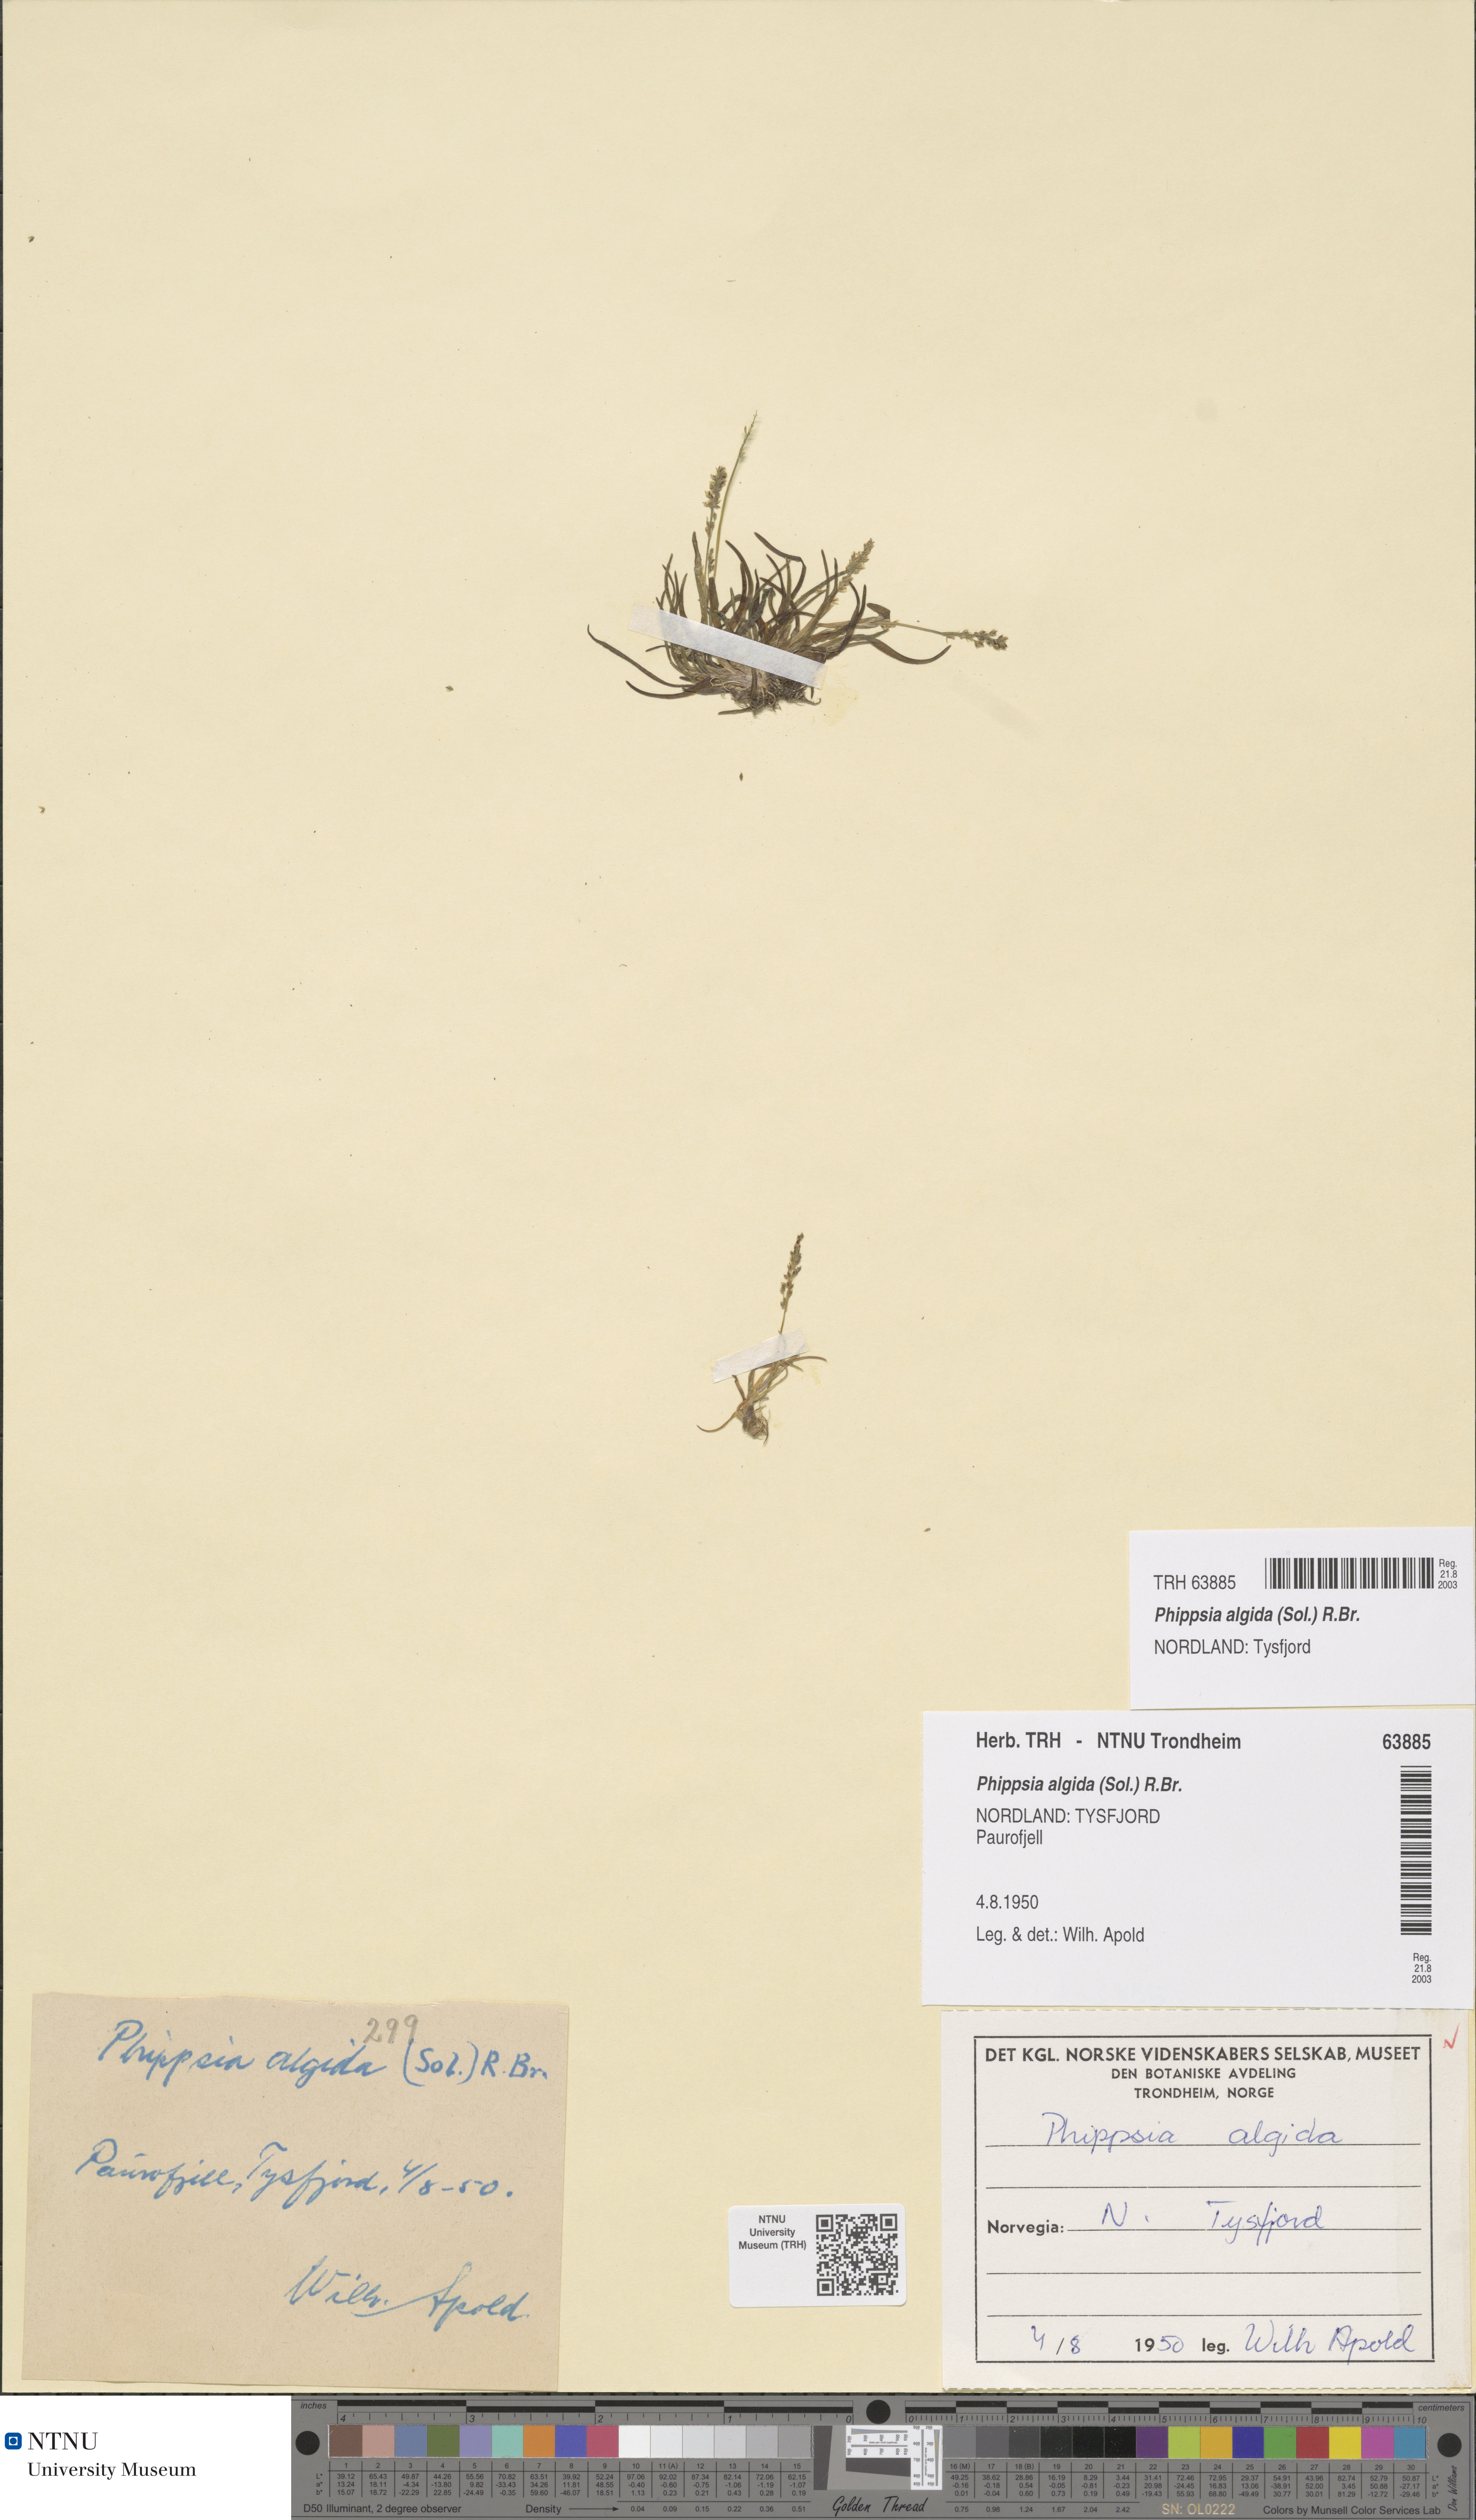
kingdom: Plantae
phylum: Tracheophyta
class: Liliopsida
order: Poales
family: Poaceae
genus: Phippsia
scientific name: Phippsia algida
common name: Ice grass
